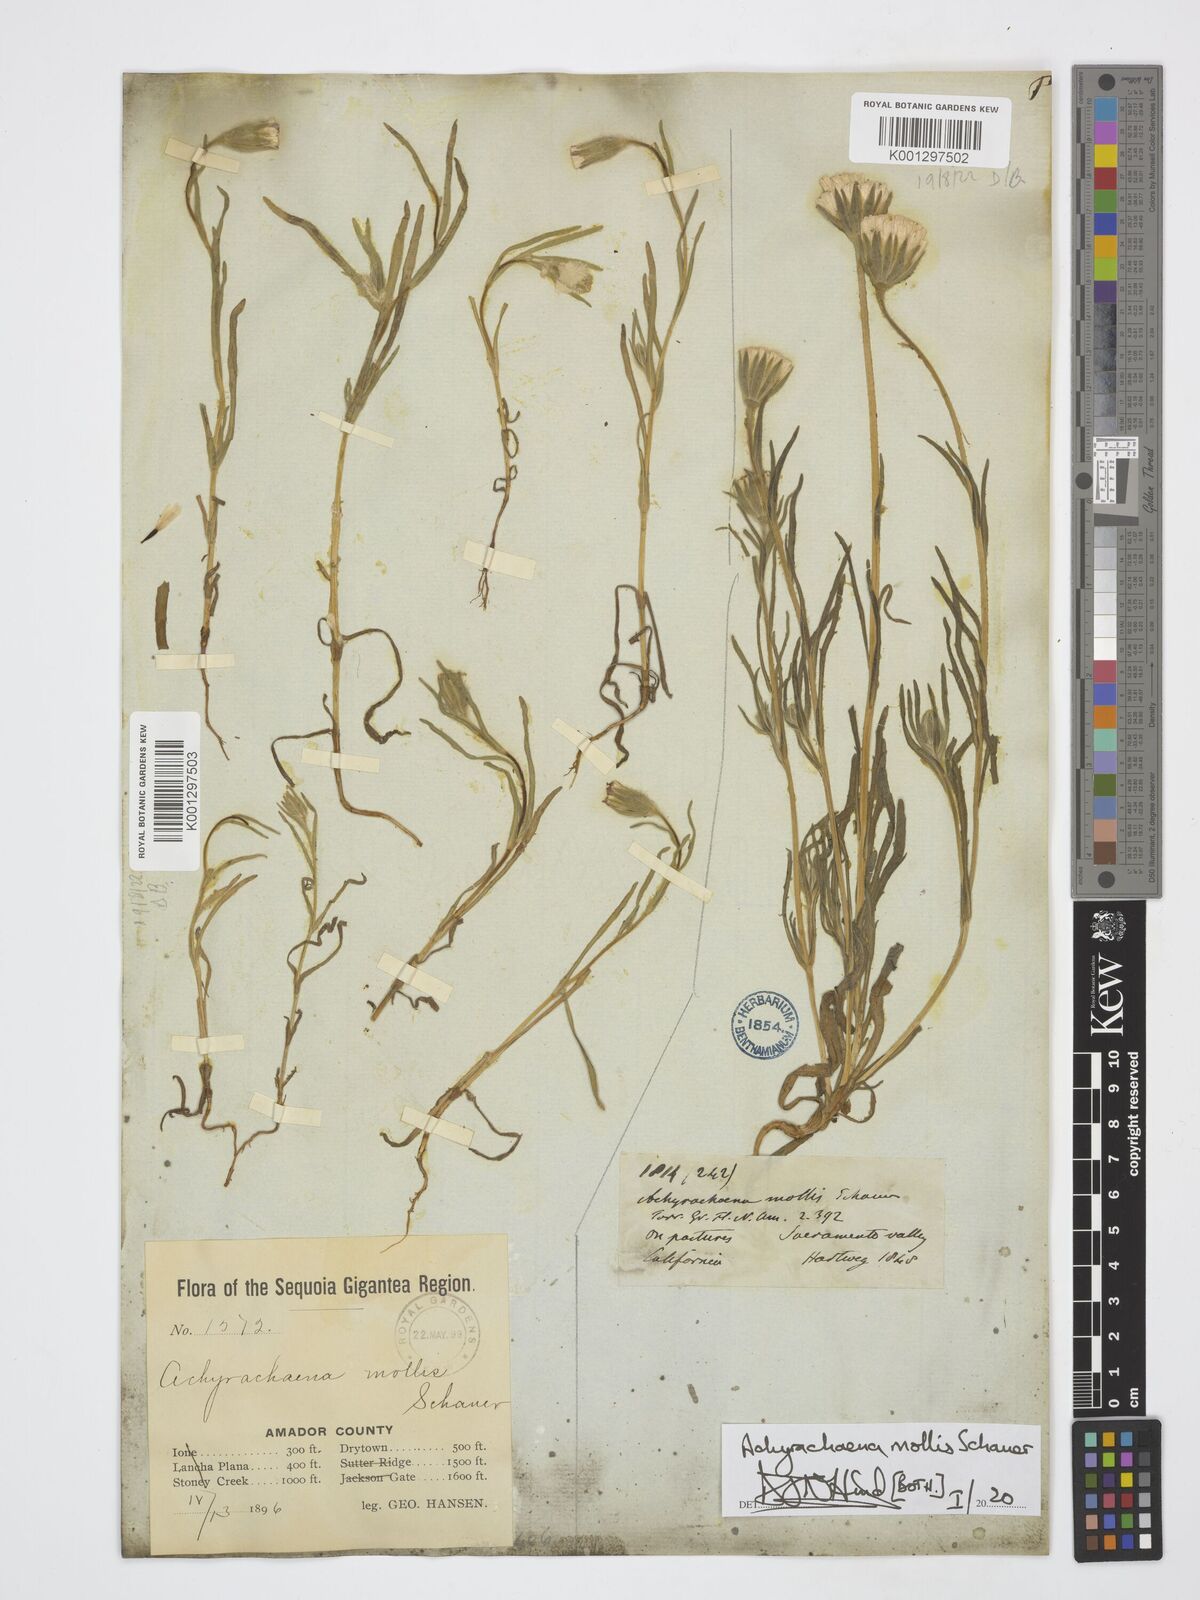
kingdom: Plantae
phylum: Tracheophyta
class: Magnoliopsida
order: Asterales
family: Asteraceae
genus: Achyrachaena
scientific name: Achyrachaena mollis
